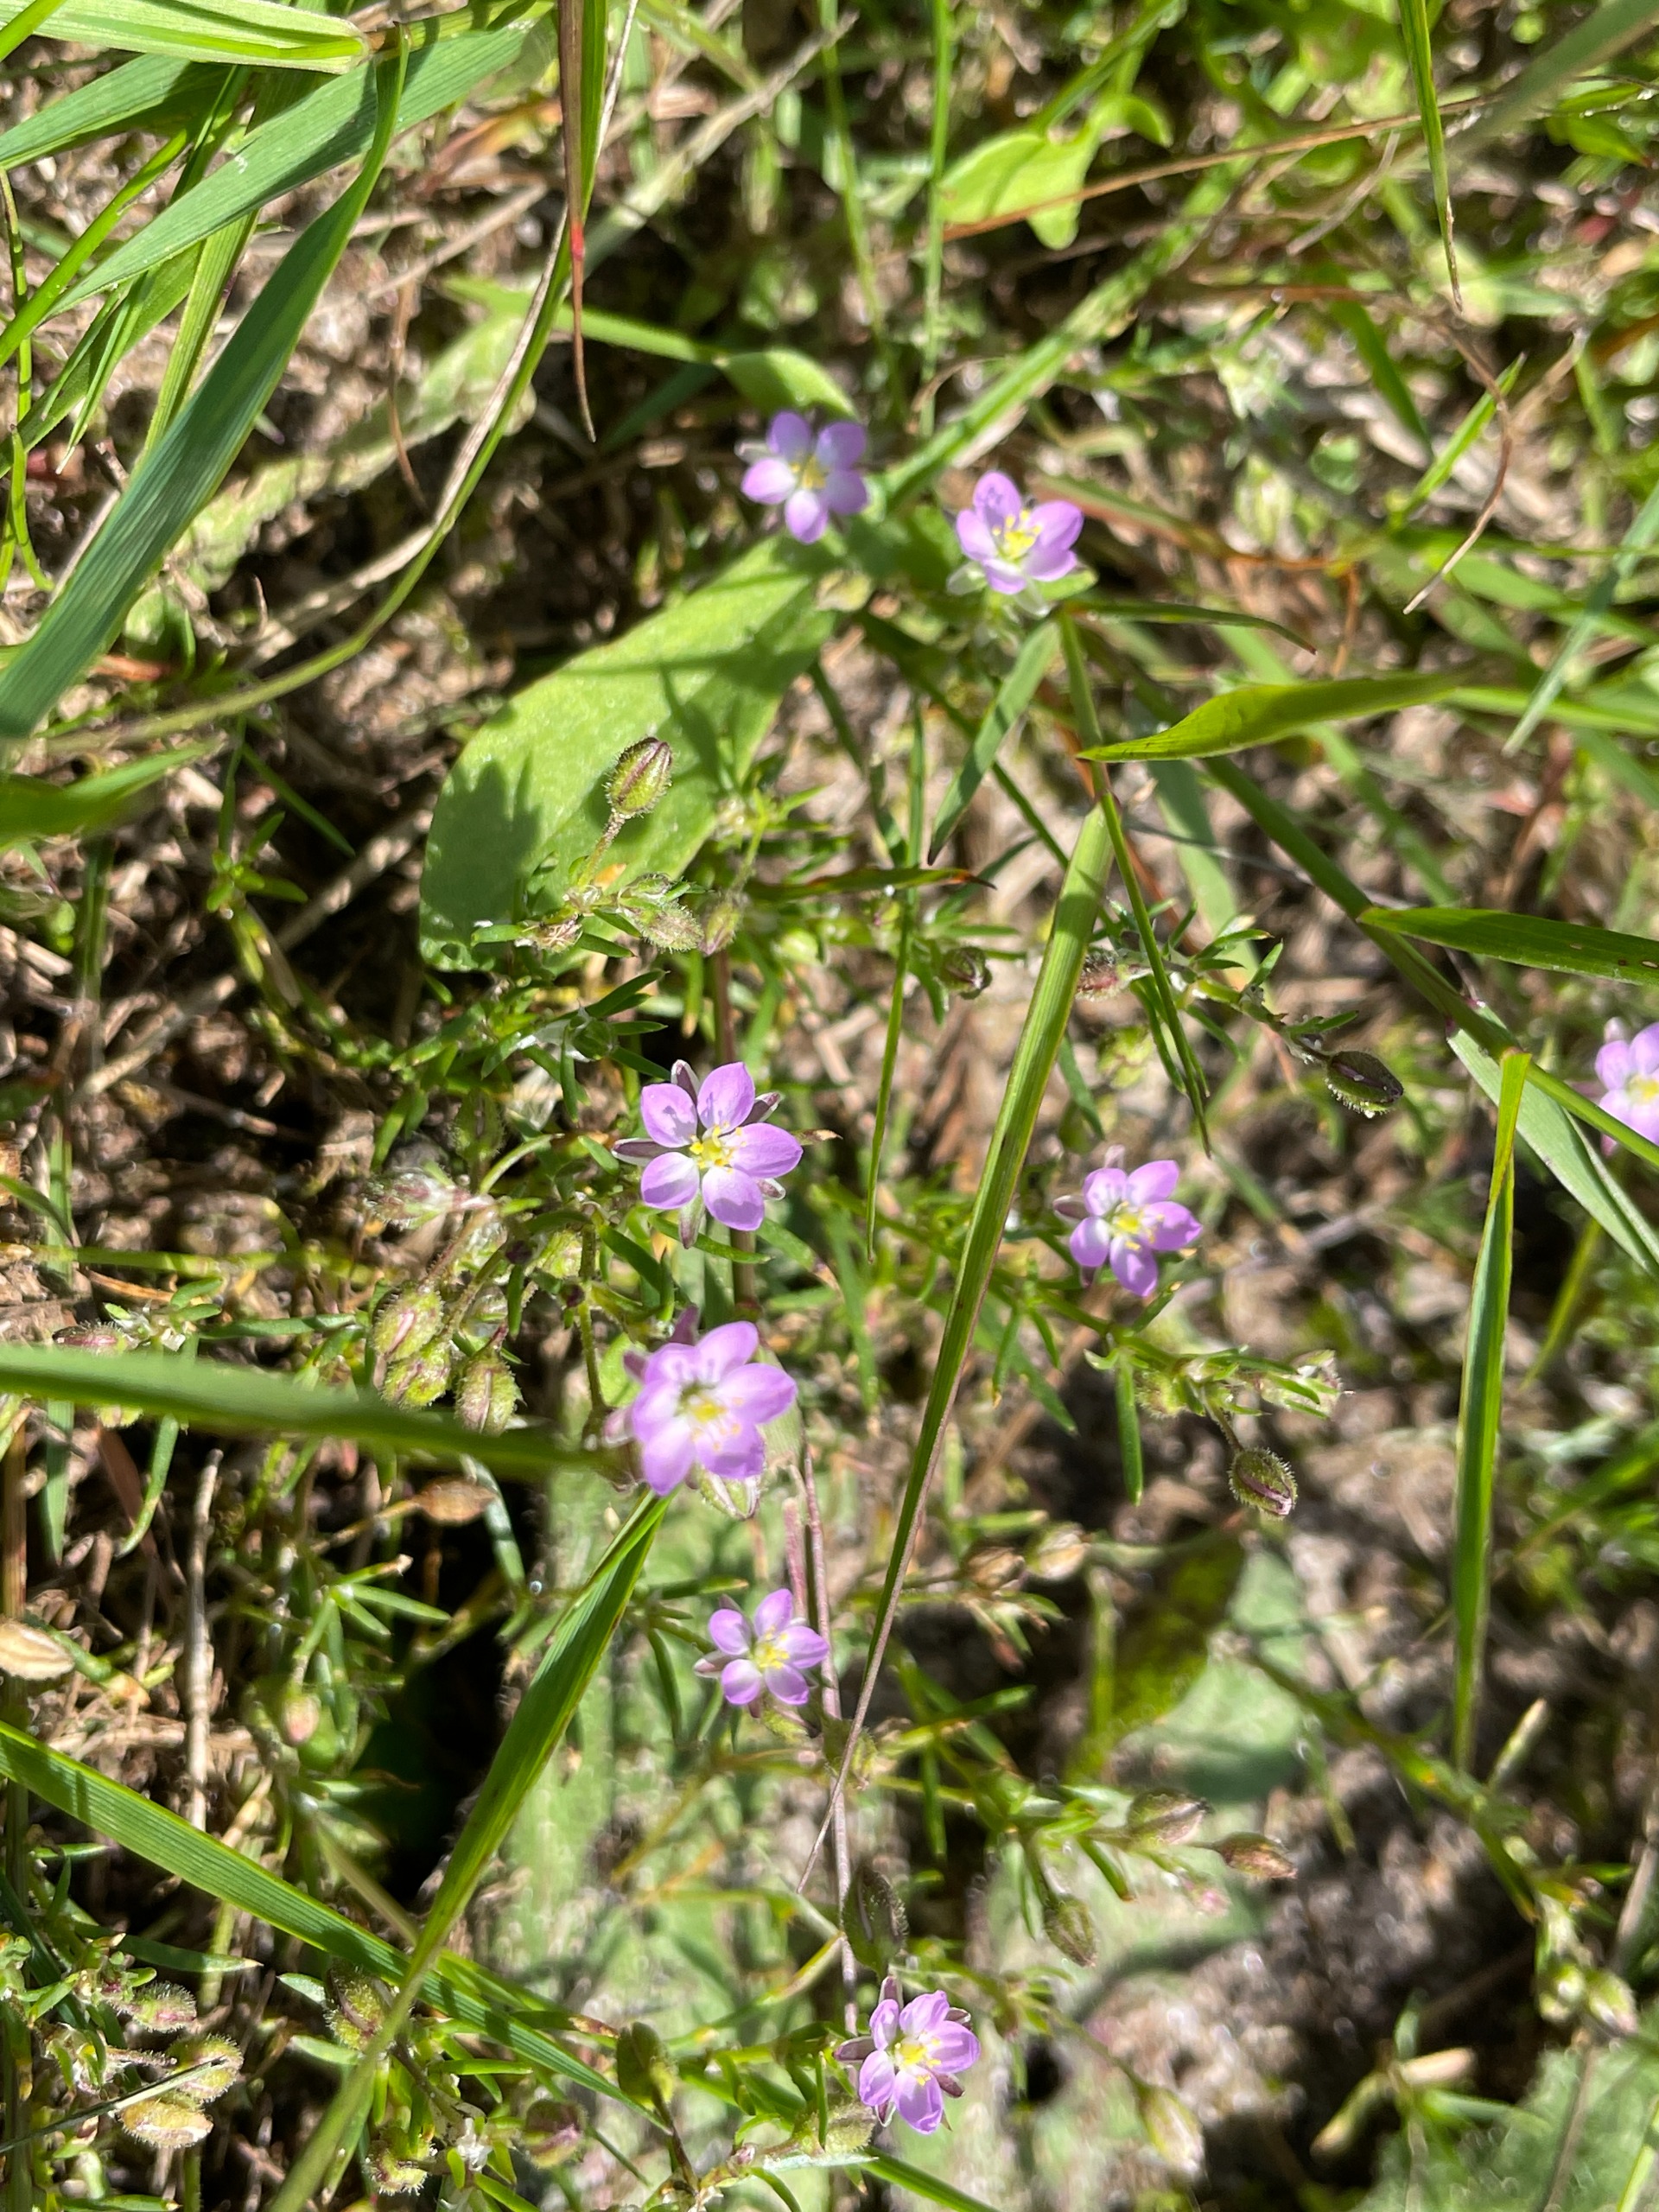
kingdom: Plantae
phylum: Tracheophyta
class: Magnoliopsida
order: Caryophyllales
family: Caryophyllaceae
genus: Spergularia
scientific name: Spergularia rubra
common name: Mark-hindeknæ
